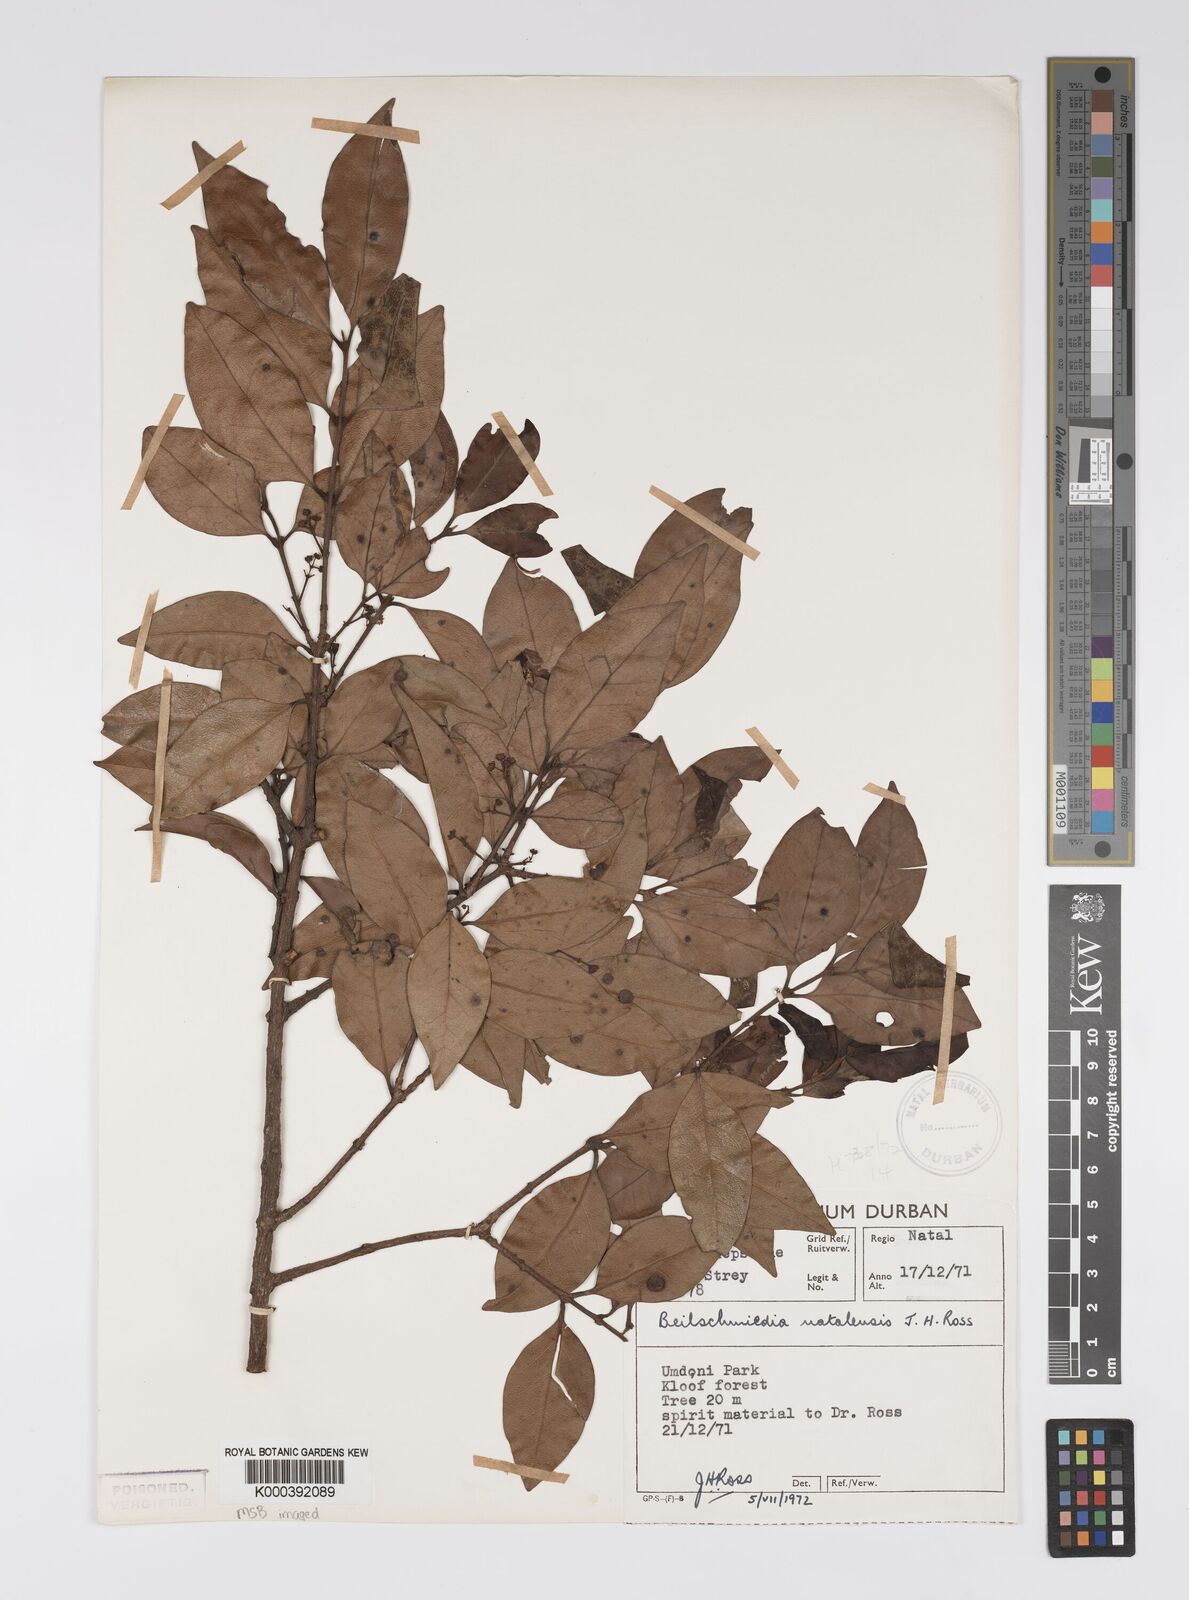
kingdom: Plantae
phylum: Tracheophyta
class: Magnoliopsida
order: Laurales
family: Lauraceae
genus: Dahlgrenodendron
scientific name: Dahlgrenodendron natalense
